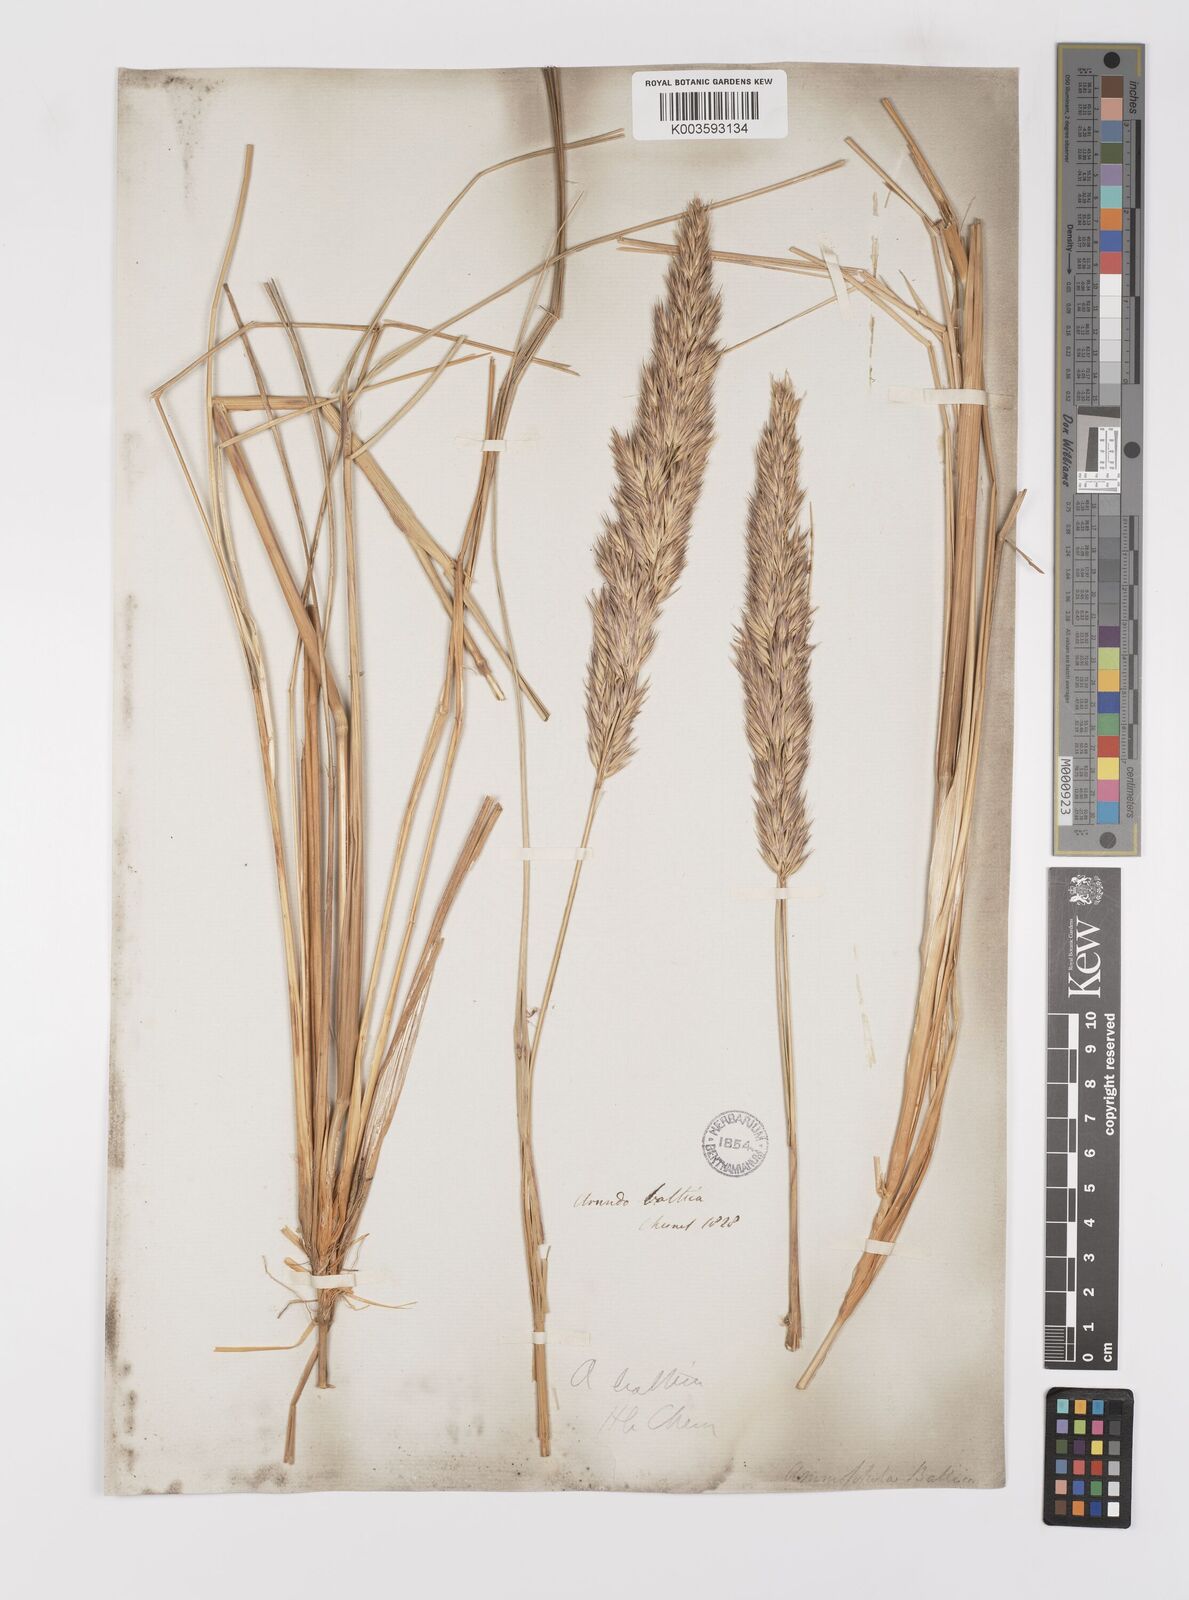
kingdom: Plantae
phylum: Tracheophyta
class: Liliopsida
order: Poales
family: Poaceae
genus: Calamagrostis
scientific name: Calamagrostis baltica
